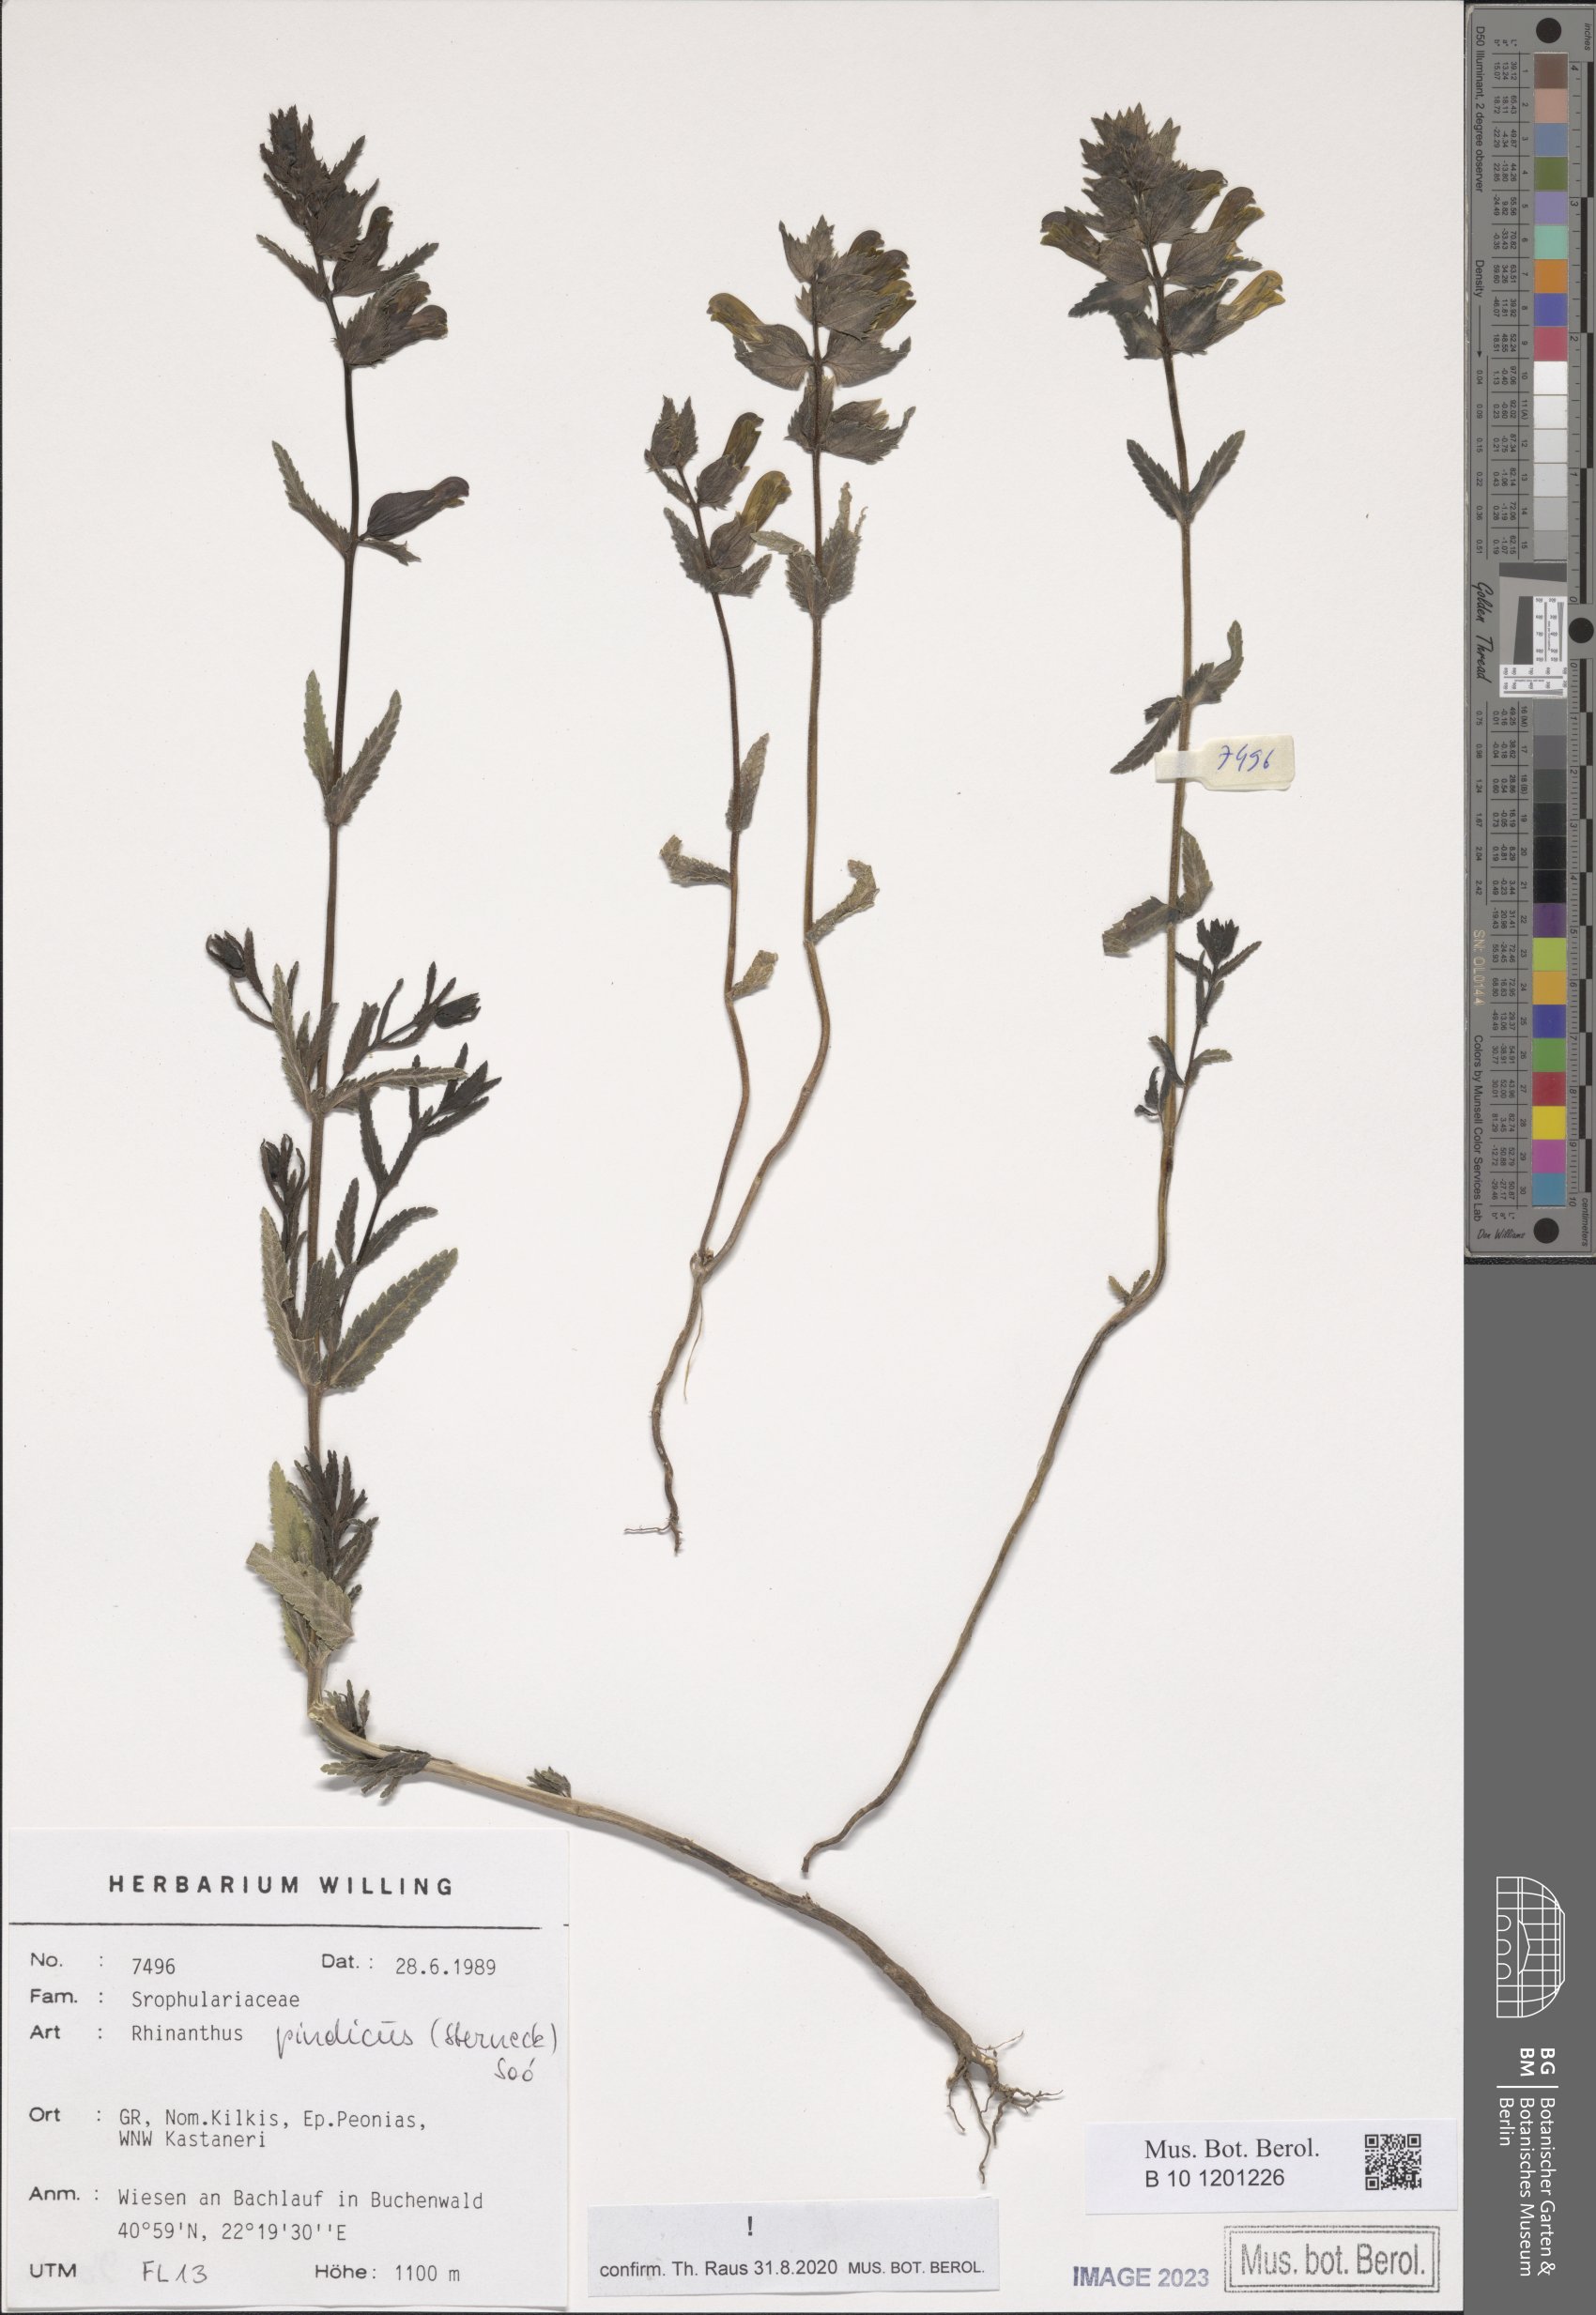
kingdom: Plantae
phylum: Tracheophyta
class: Magnoliopsida
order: Lamiales
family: Orobanchaceae
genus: Rhinanthus
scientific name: Rhinanthus pindicus
